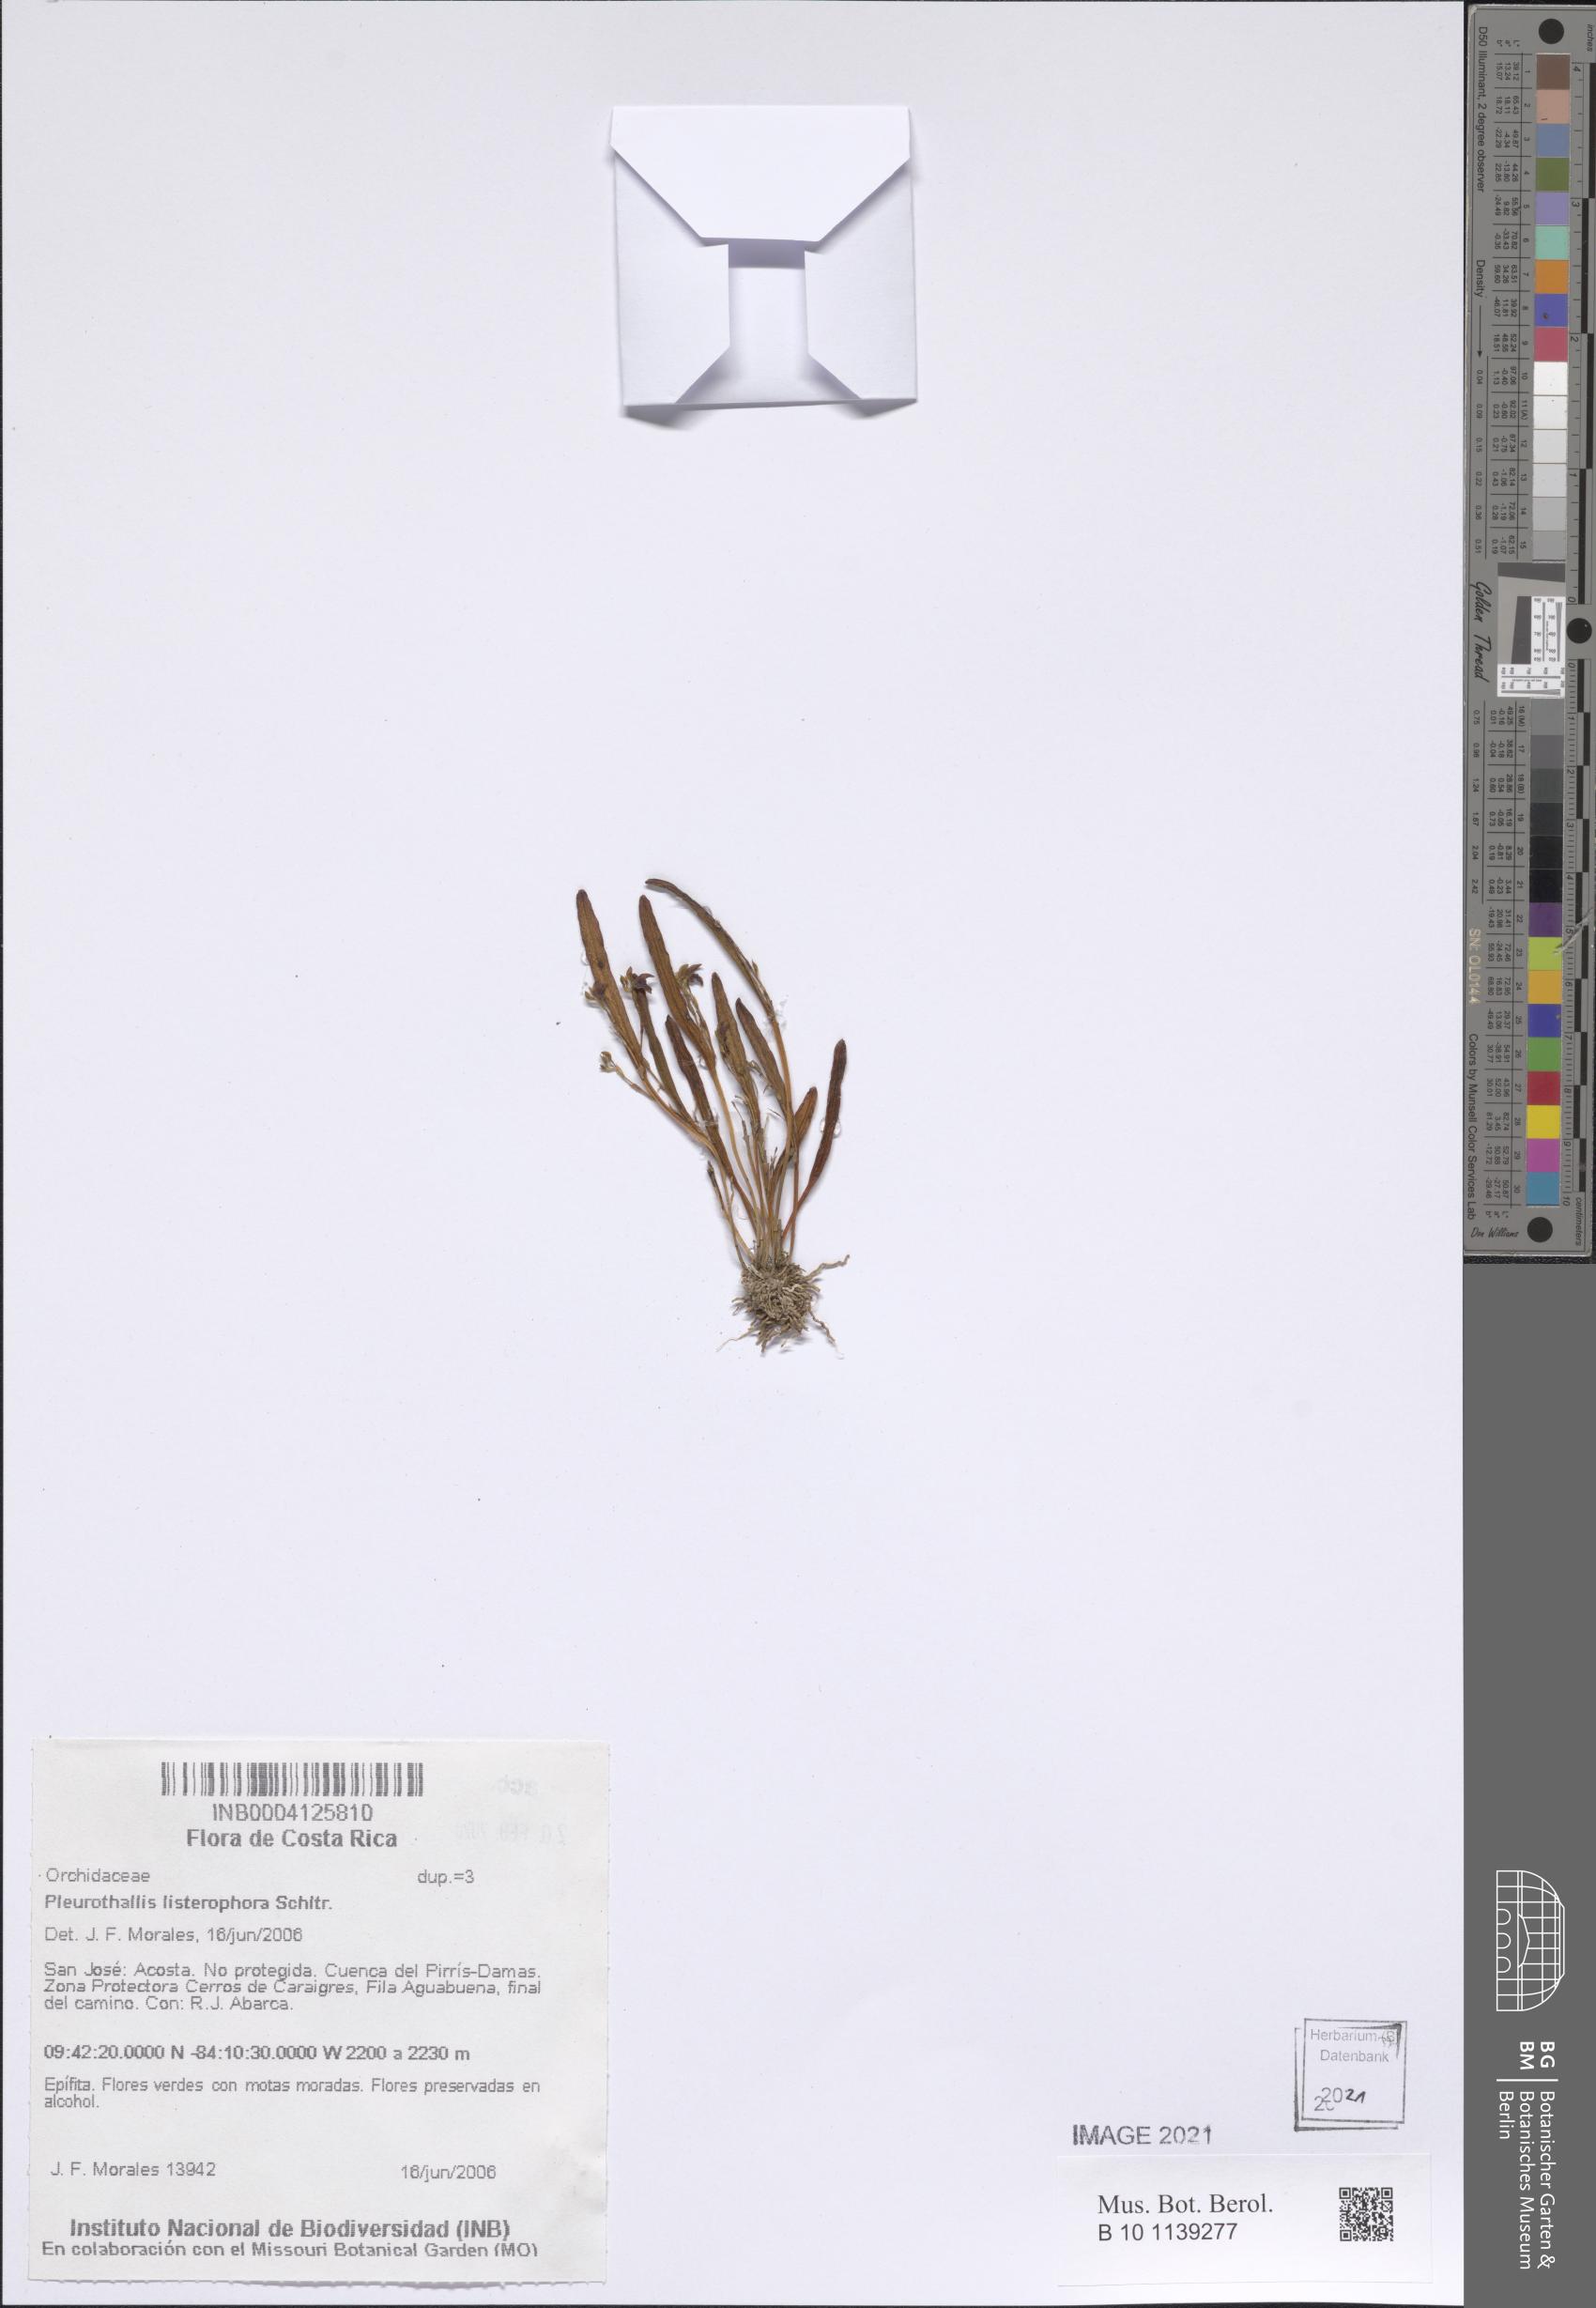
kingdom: Plantae
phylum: Tracheophyta
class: Liliopsida
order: Asparagales
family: Orchidaceae
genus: Stelis
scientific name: Stelis listerophora
